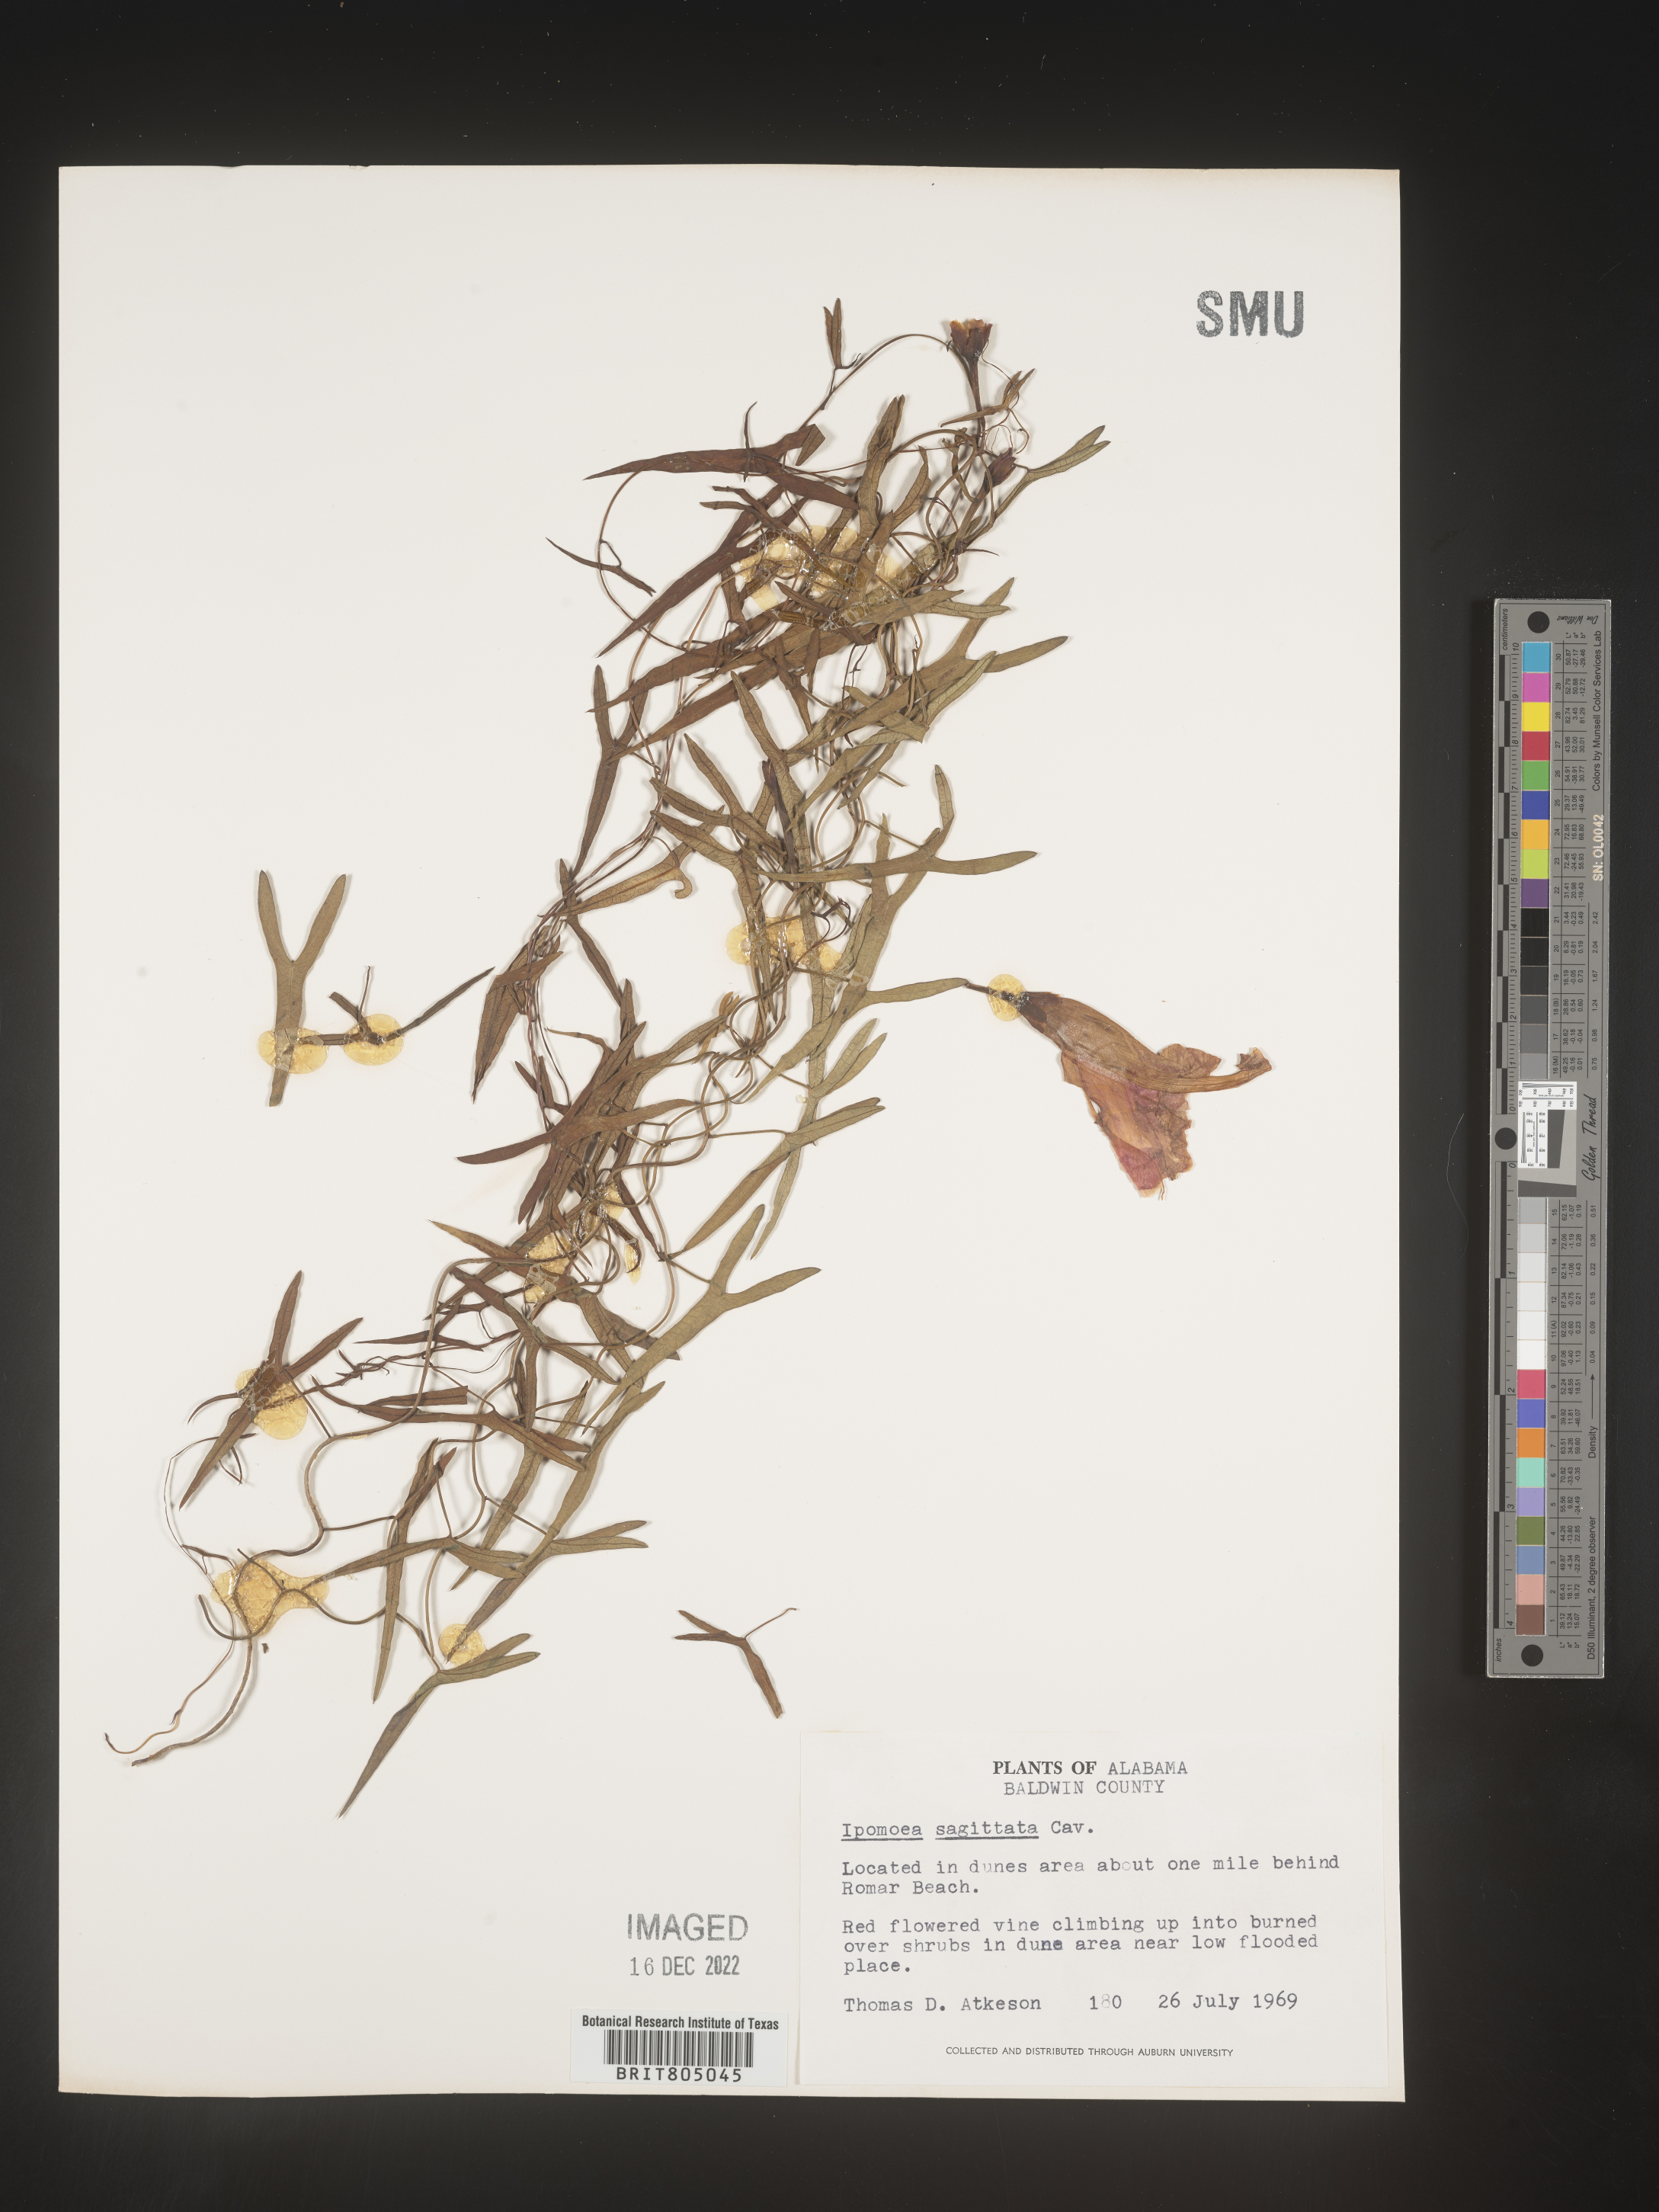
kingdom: Plantae
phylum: Tracheophyta
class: Magnoliopsida
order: Solanales
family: Convolvulaceae
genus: Ipomoea
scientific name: Ipomoea sinensis
